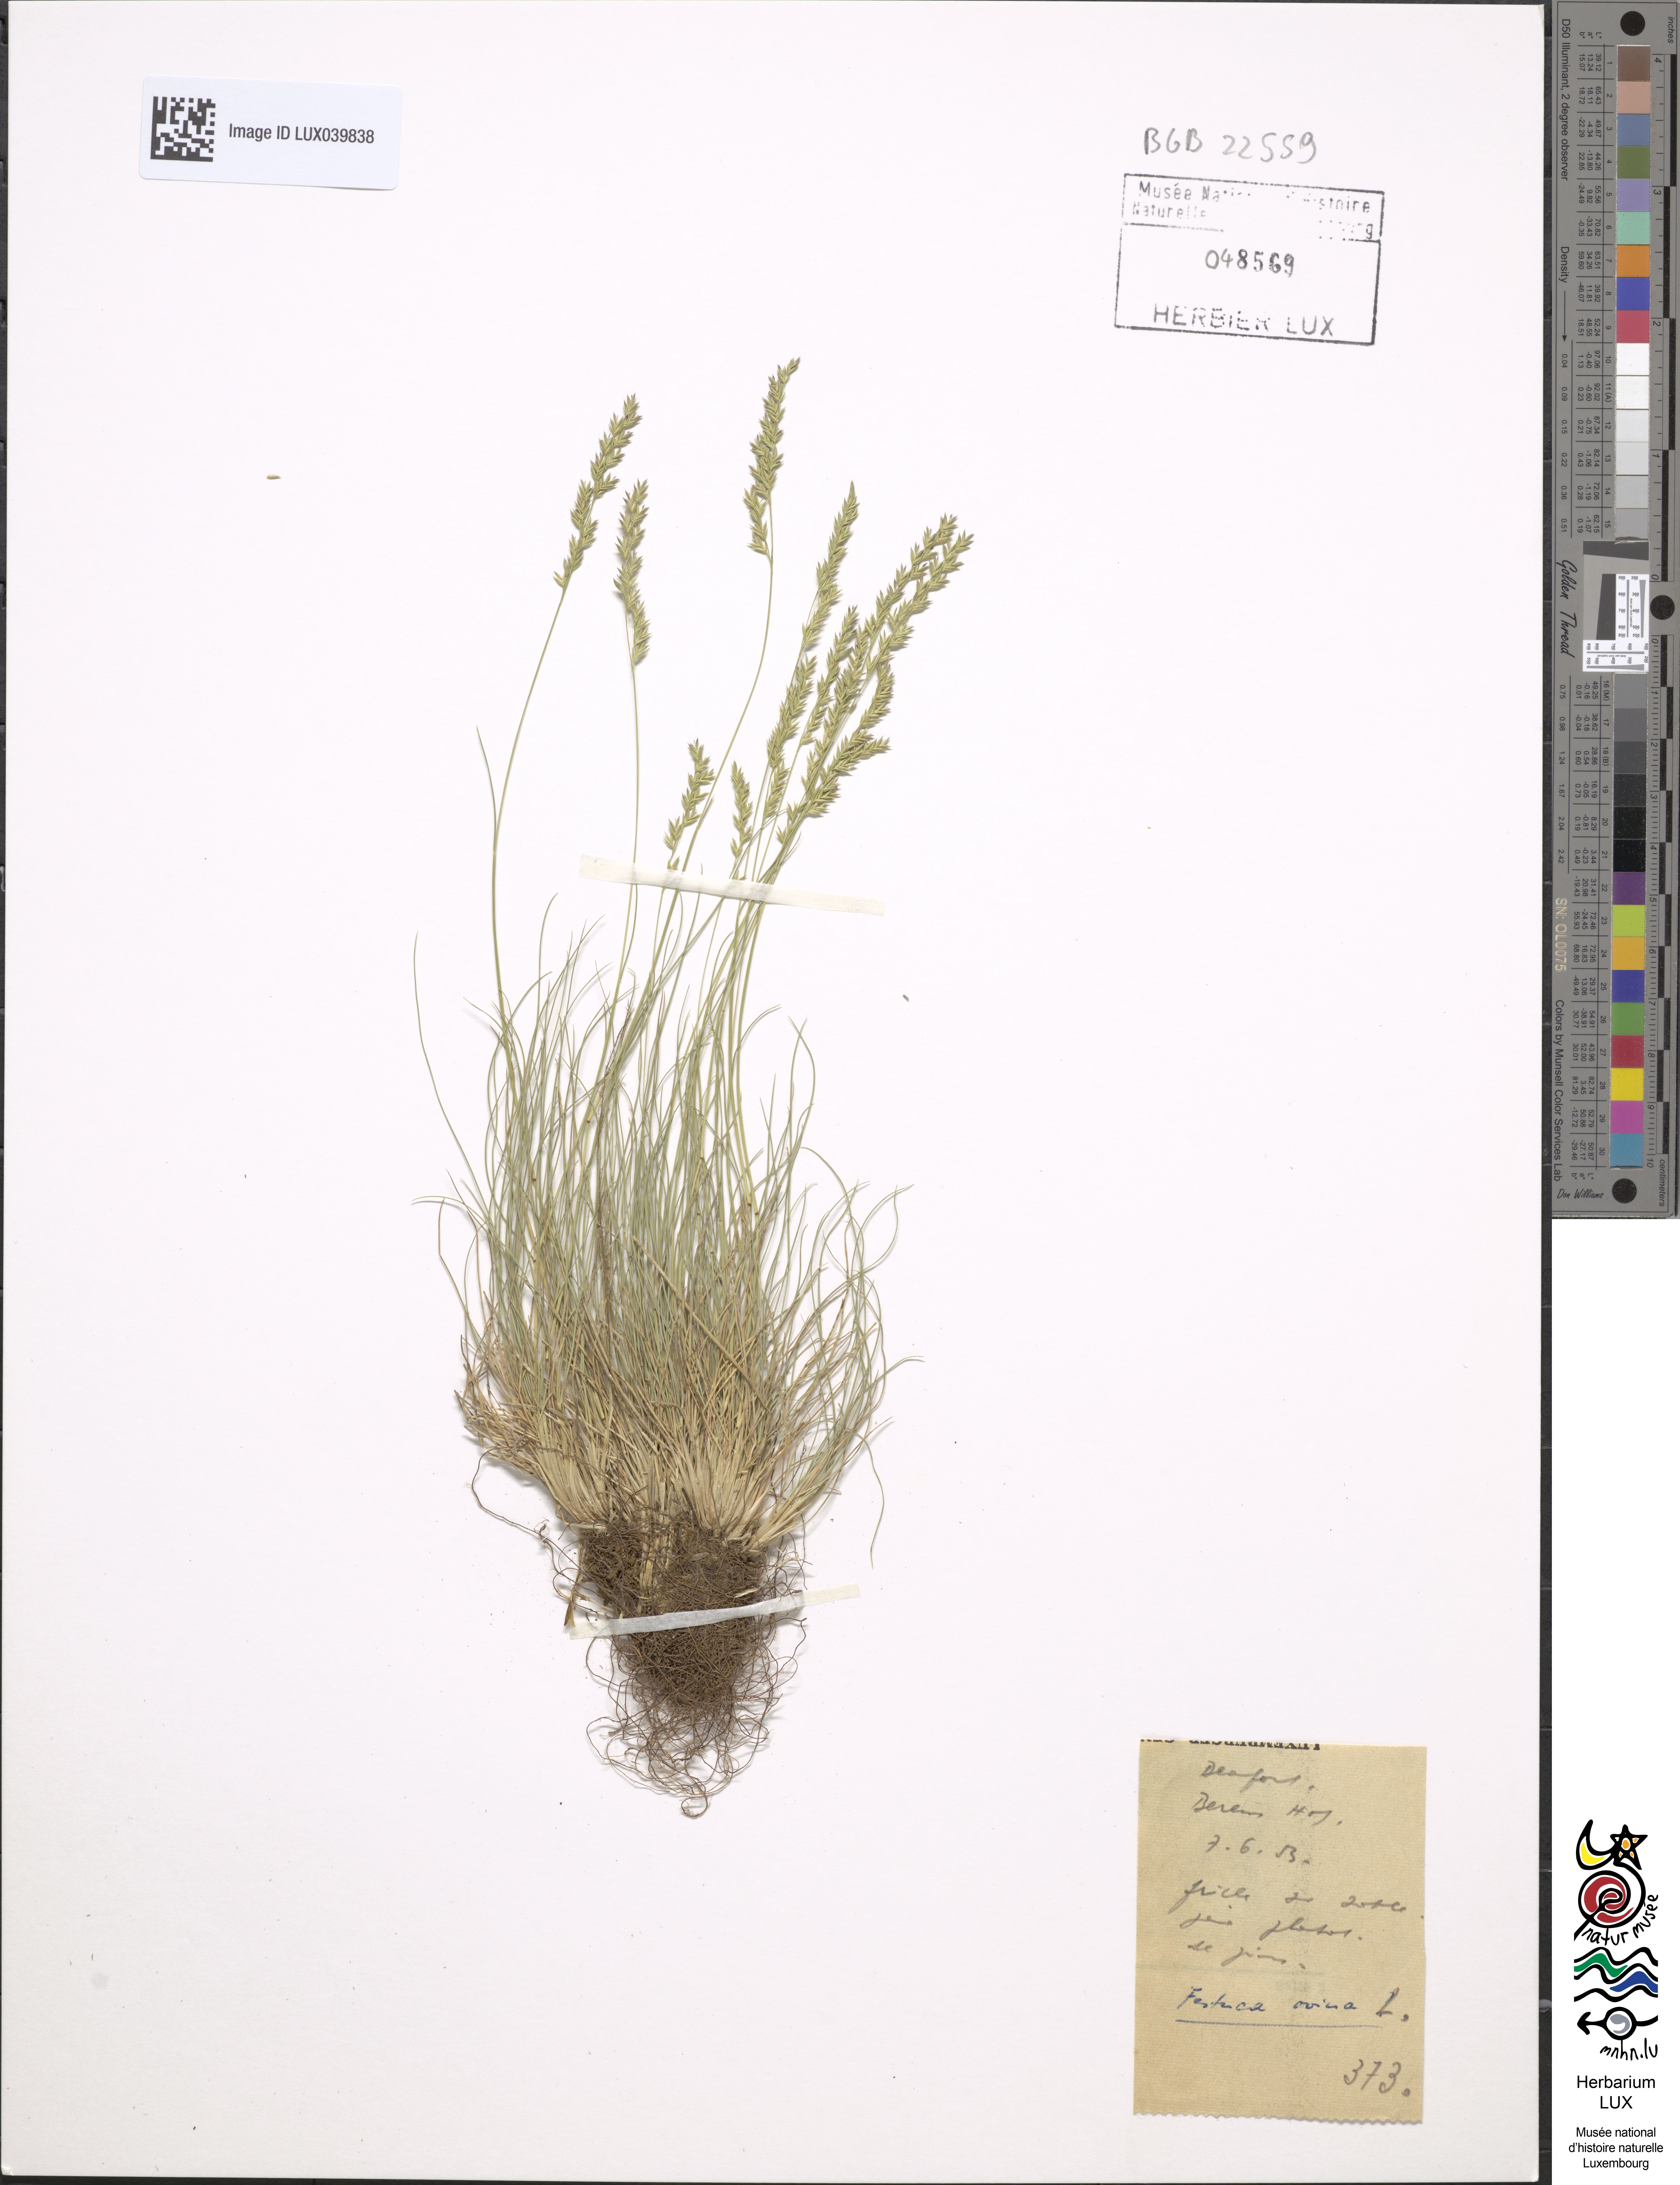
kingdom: Plantae
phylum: Tracheophyta
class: Liliopsida
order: Poales
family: Poaceae
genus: Festuca
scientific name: Festuca ovina
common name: Sheep fescue
